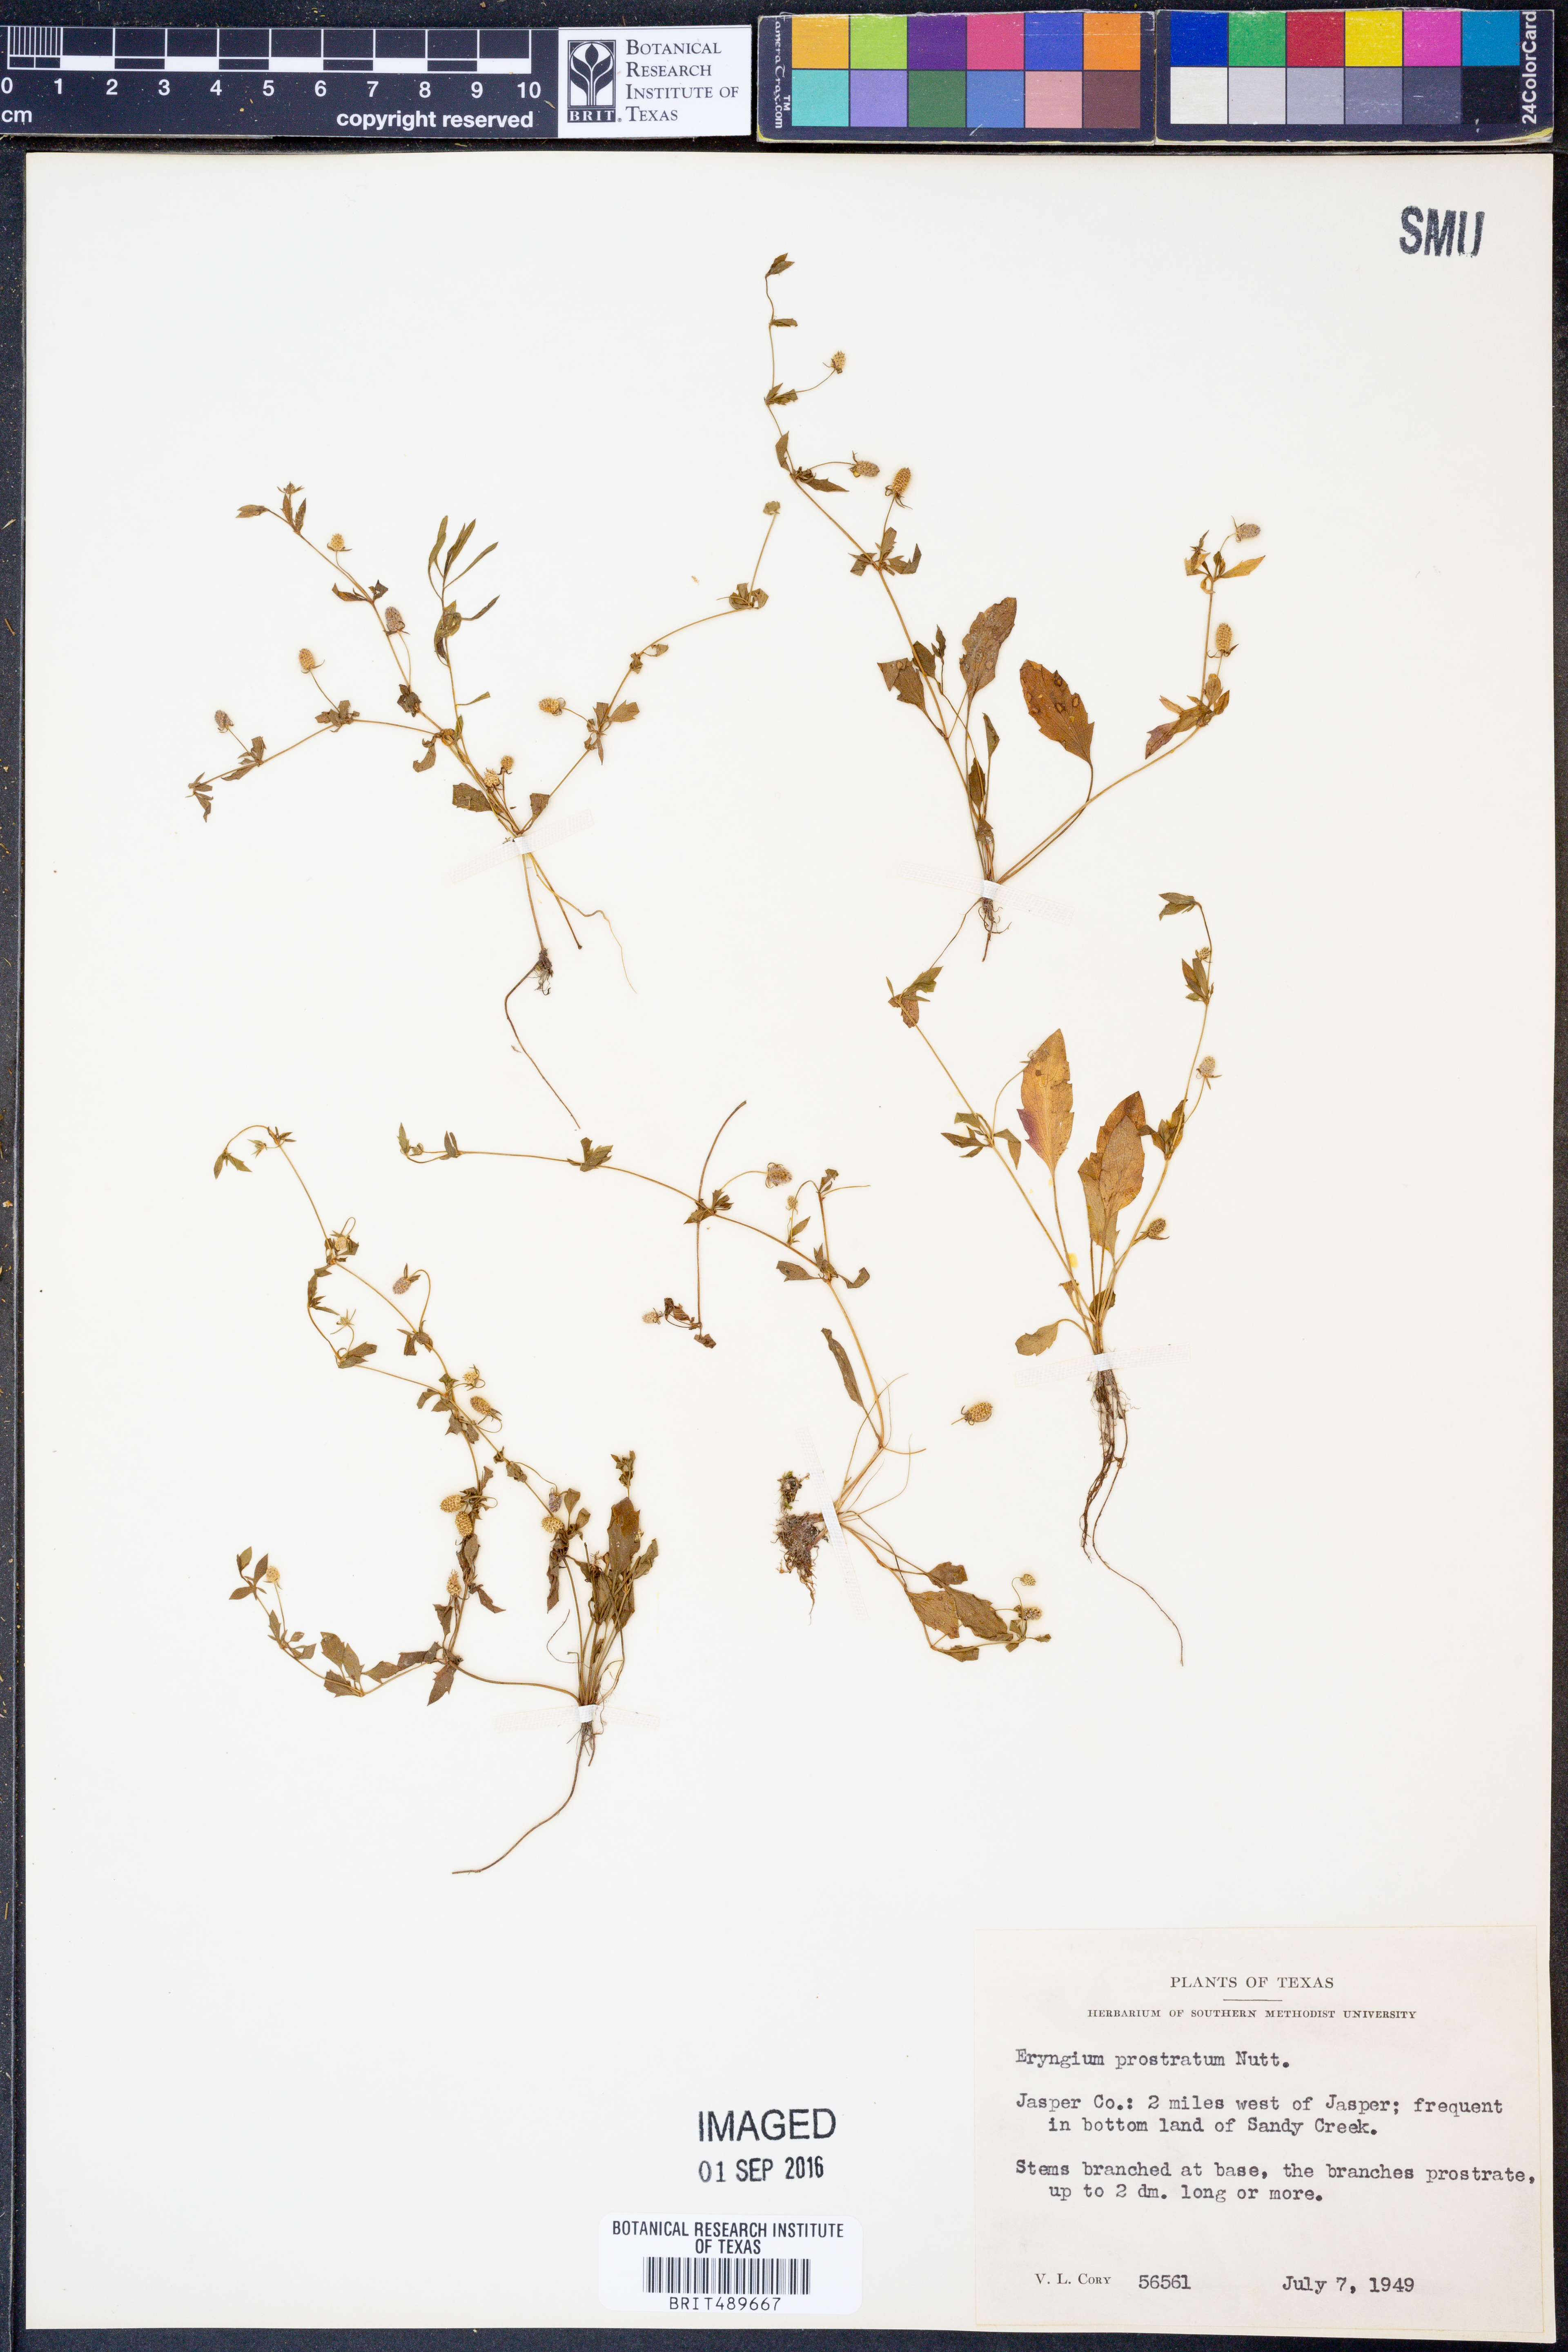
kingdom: Plantae
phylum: Tracheophyta
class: Magnoliopsida
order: Apiales
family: Apiaceae
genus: Eryngium
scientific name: Eryngium prostratum
